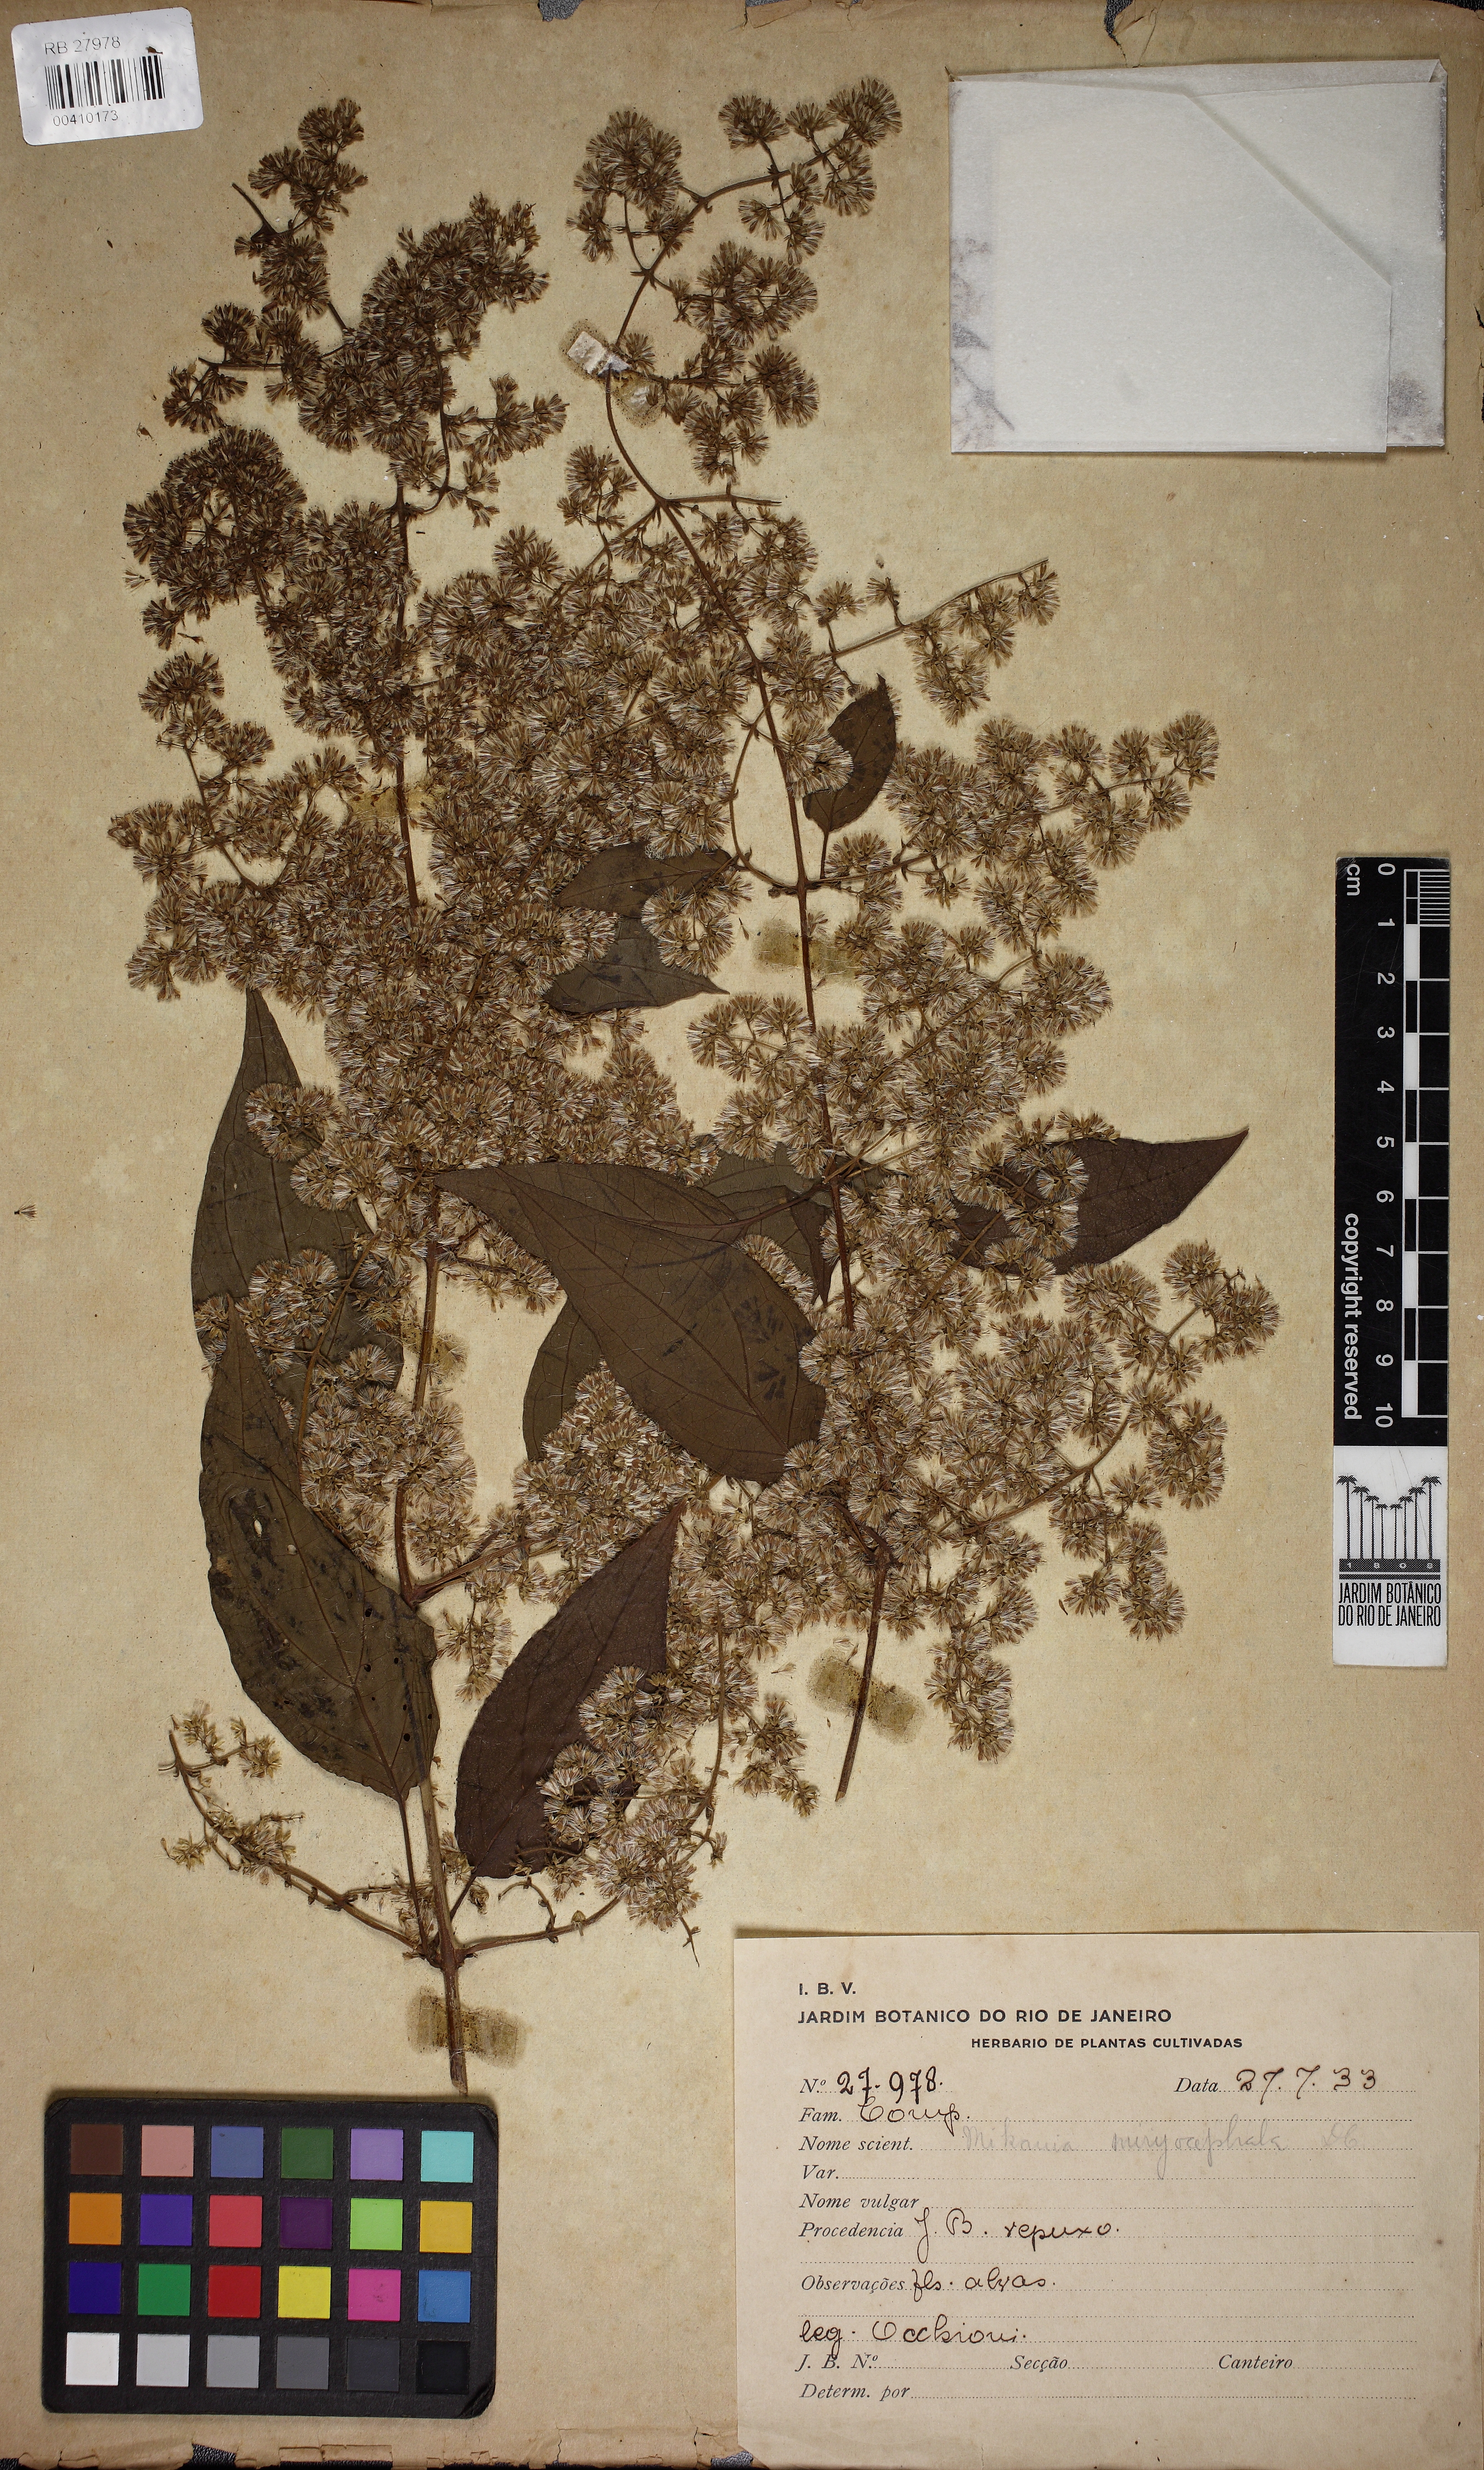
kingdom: Plantae
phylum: Tracheophyta
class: Magnoliopsida
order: Asterales
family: Asteraceae
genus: Mikania
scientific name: Mikania myriocephala
